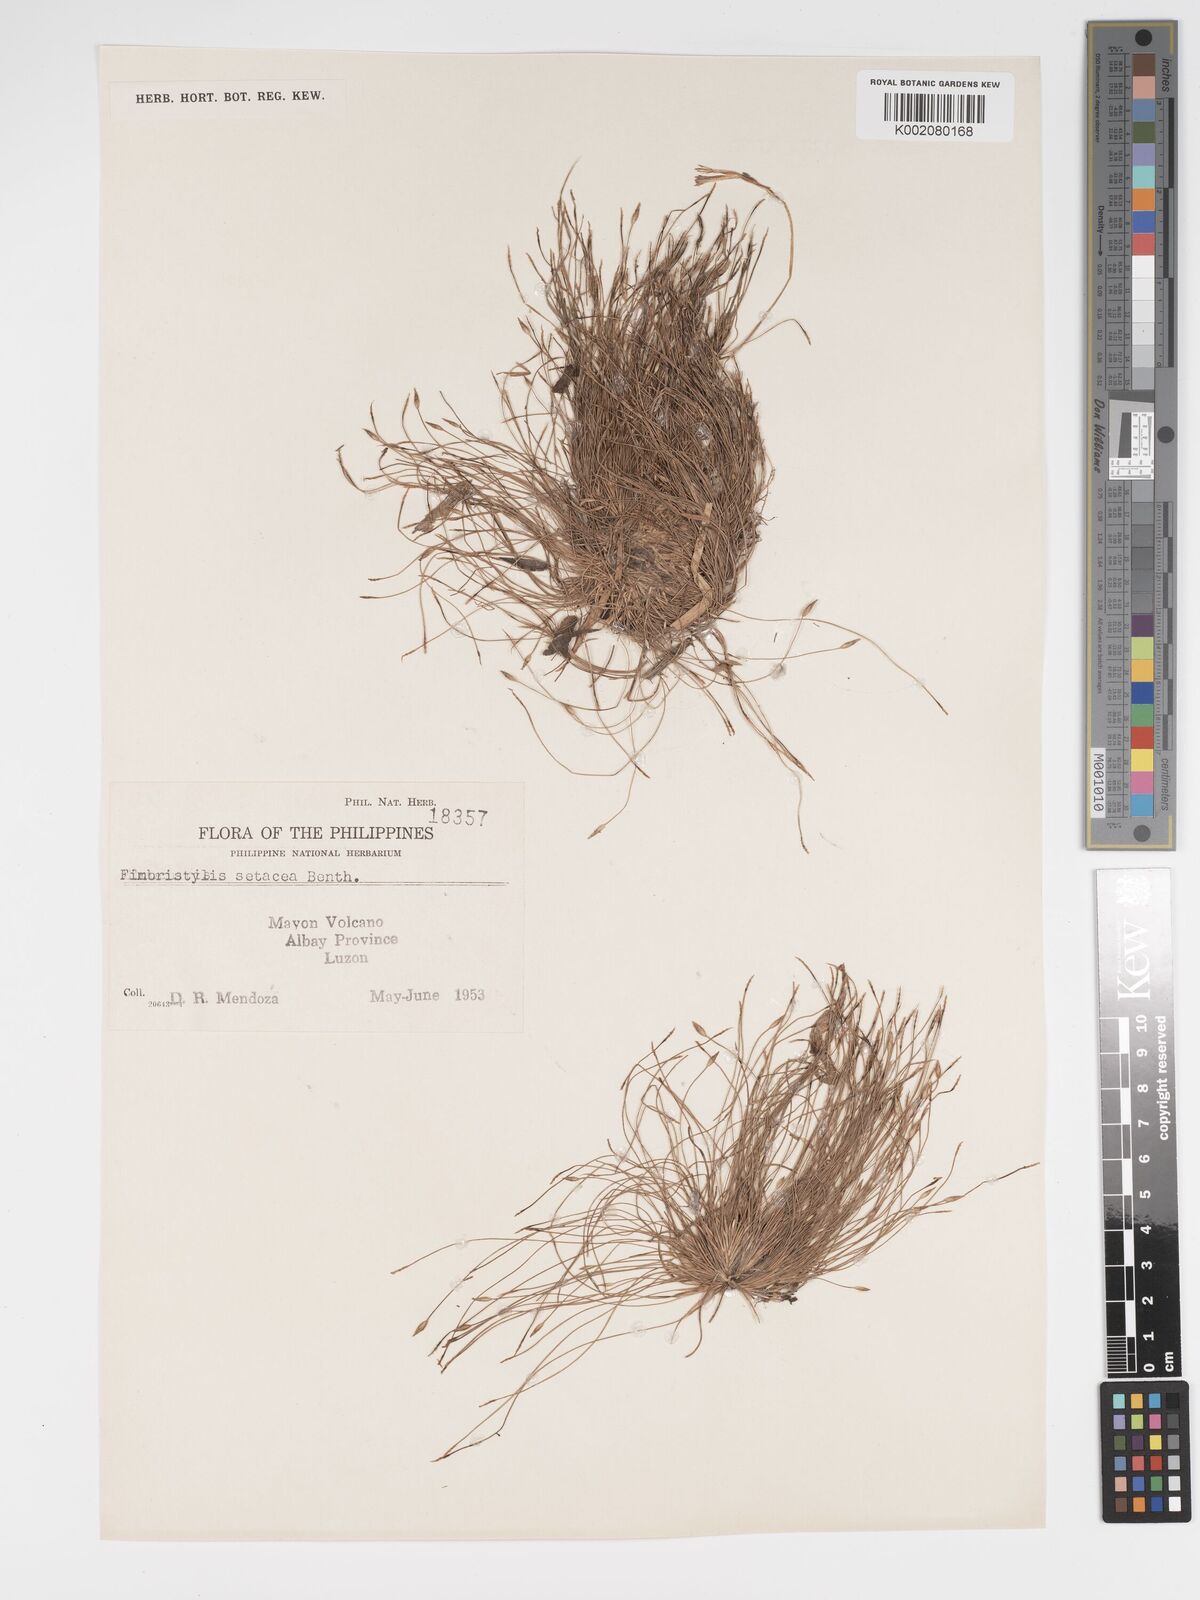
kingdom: Plantae
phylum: Tracheophyta
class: Liliopsida
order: Poales
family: Cyperaceae
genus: Fimbristylis
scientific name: Fimbristylis acicularis
